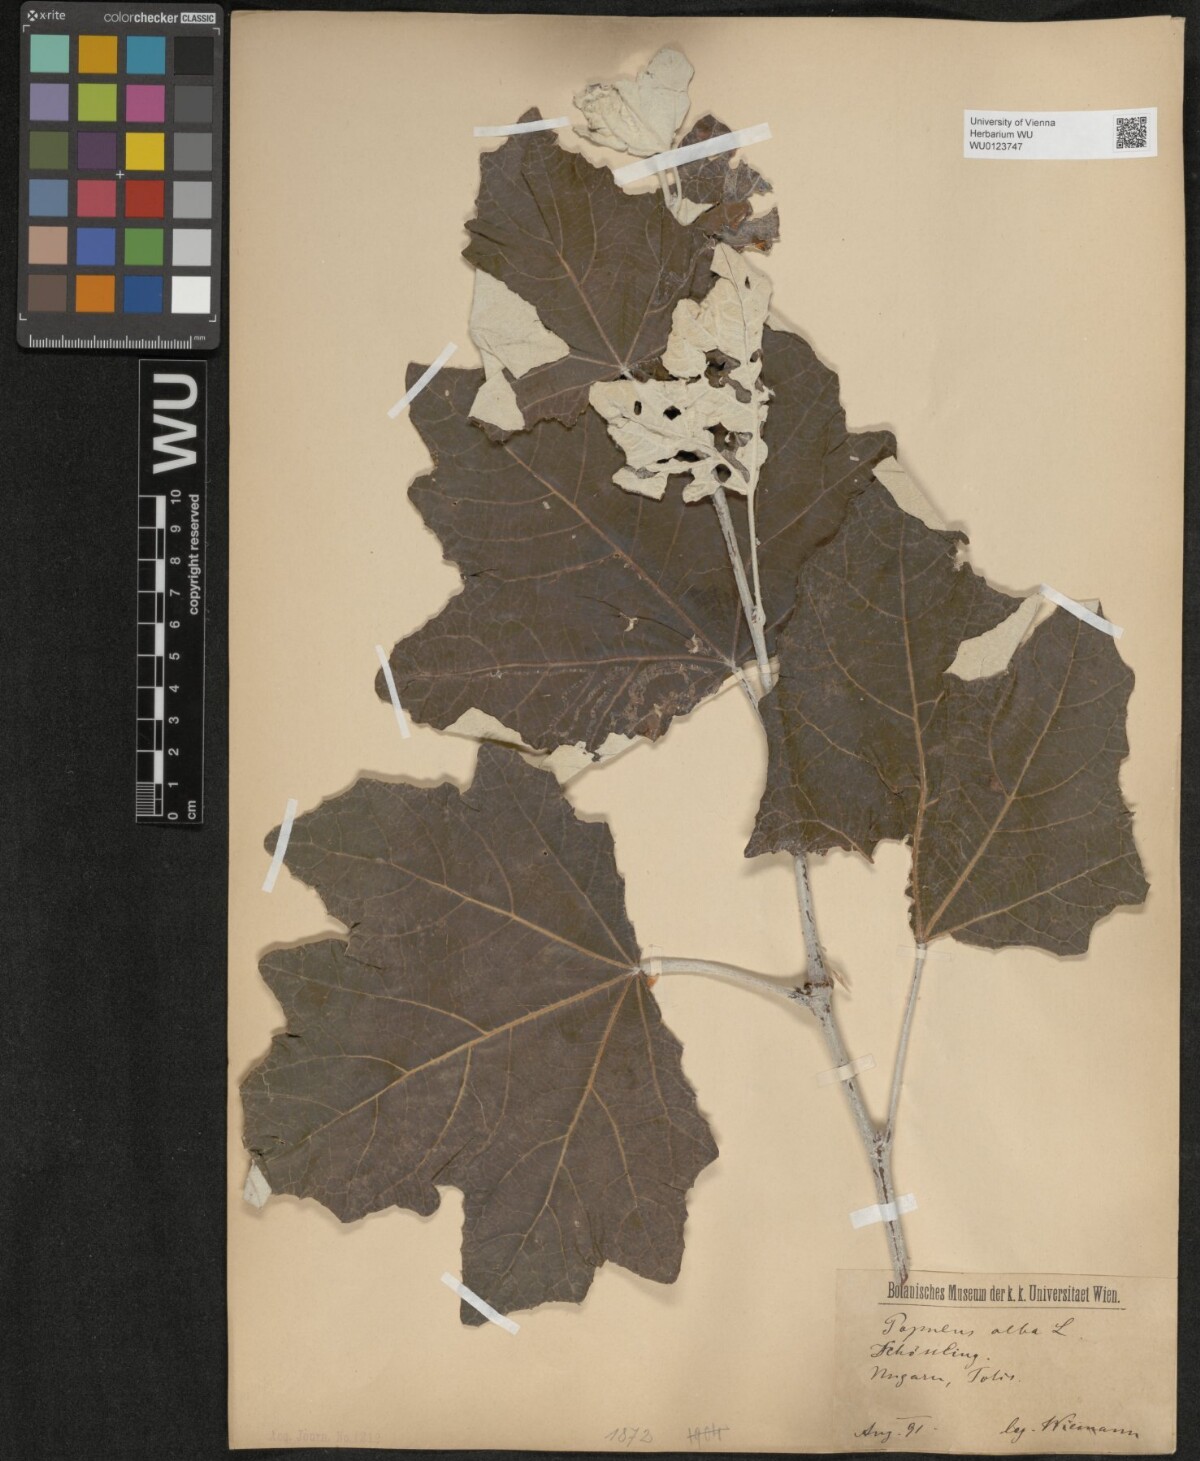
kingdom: Plantae
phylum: Tracheophyta
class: Magnoliopsida
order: Malpighiales
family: Salicaceae
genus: Populus
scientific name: Populus alba
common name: White poplar
